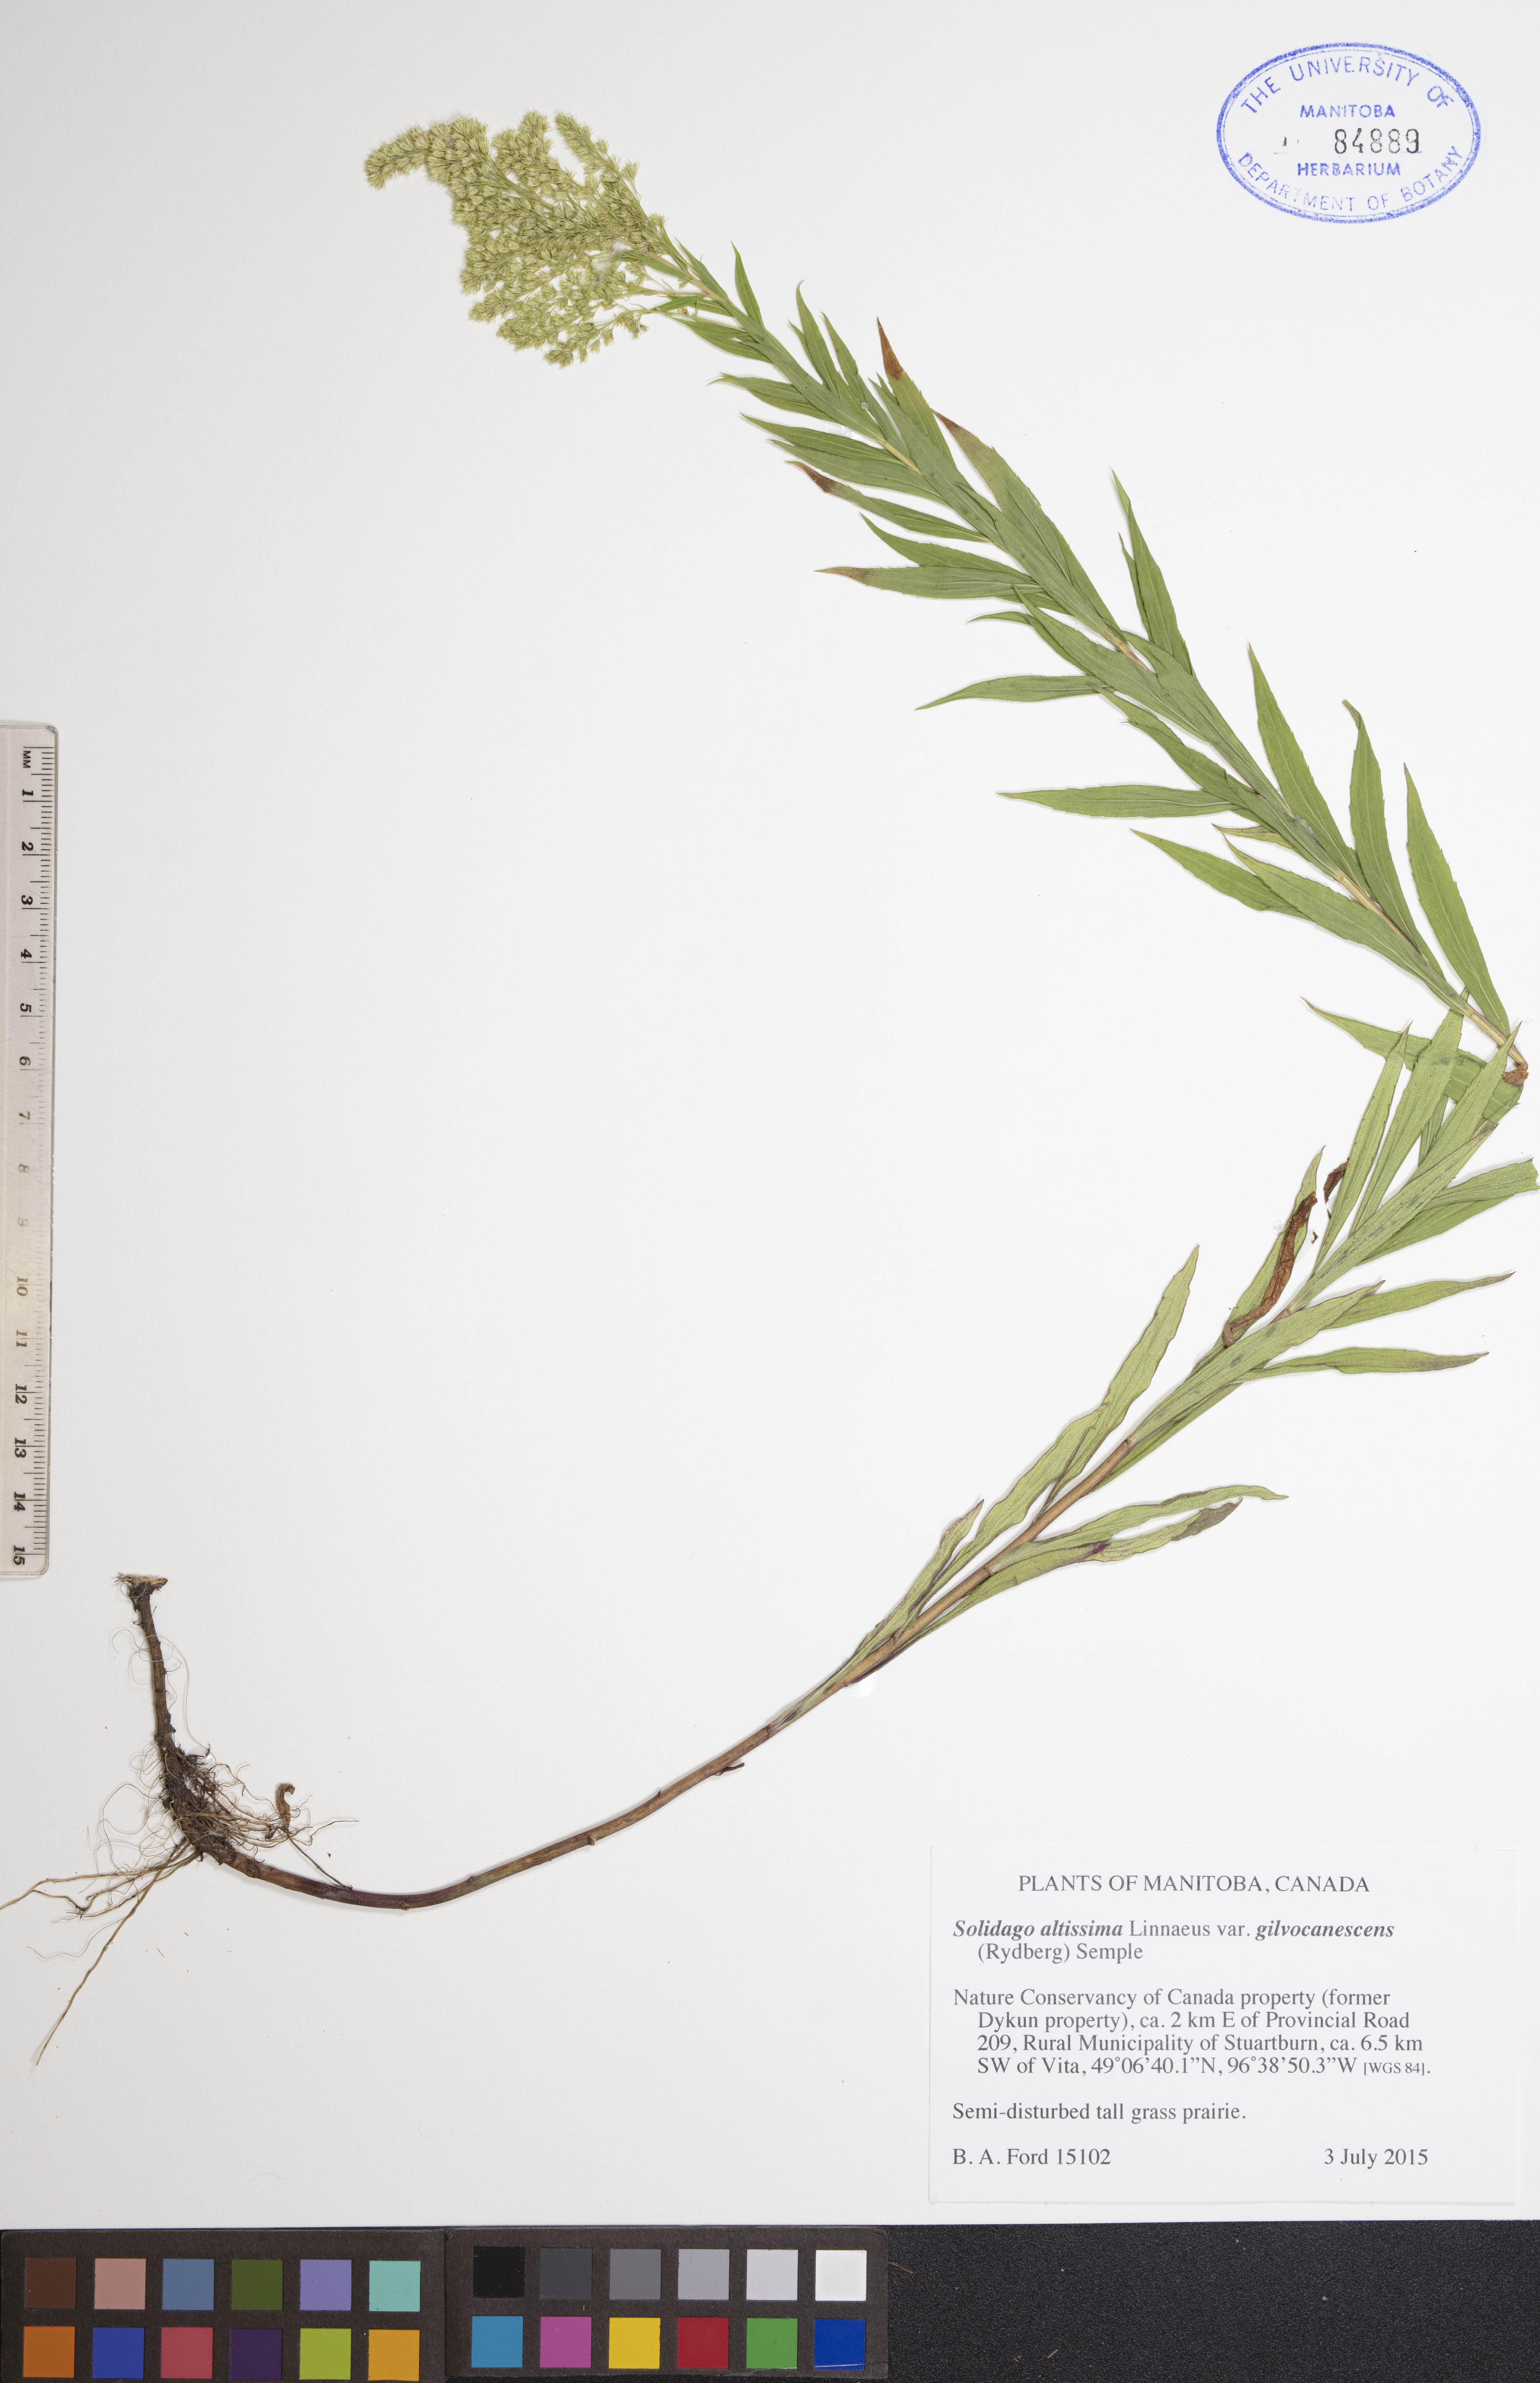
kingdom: Plantae
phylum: Tracheophyta
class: Magnoliopsida
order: Asterales
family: Asteraceae
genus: Solidago
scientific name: Solidago altissima
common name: Late goldenrod
